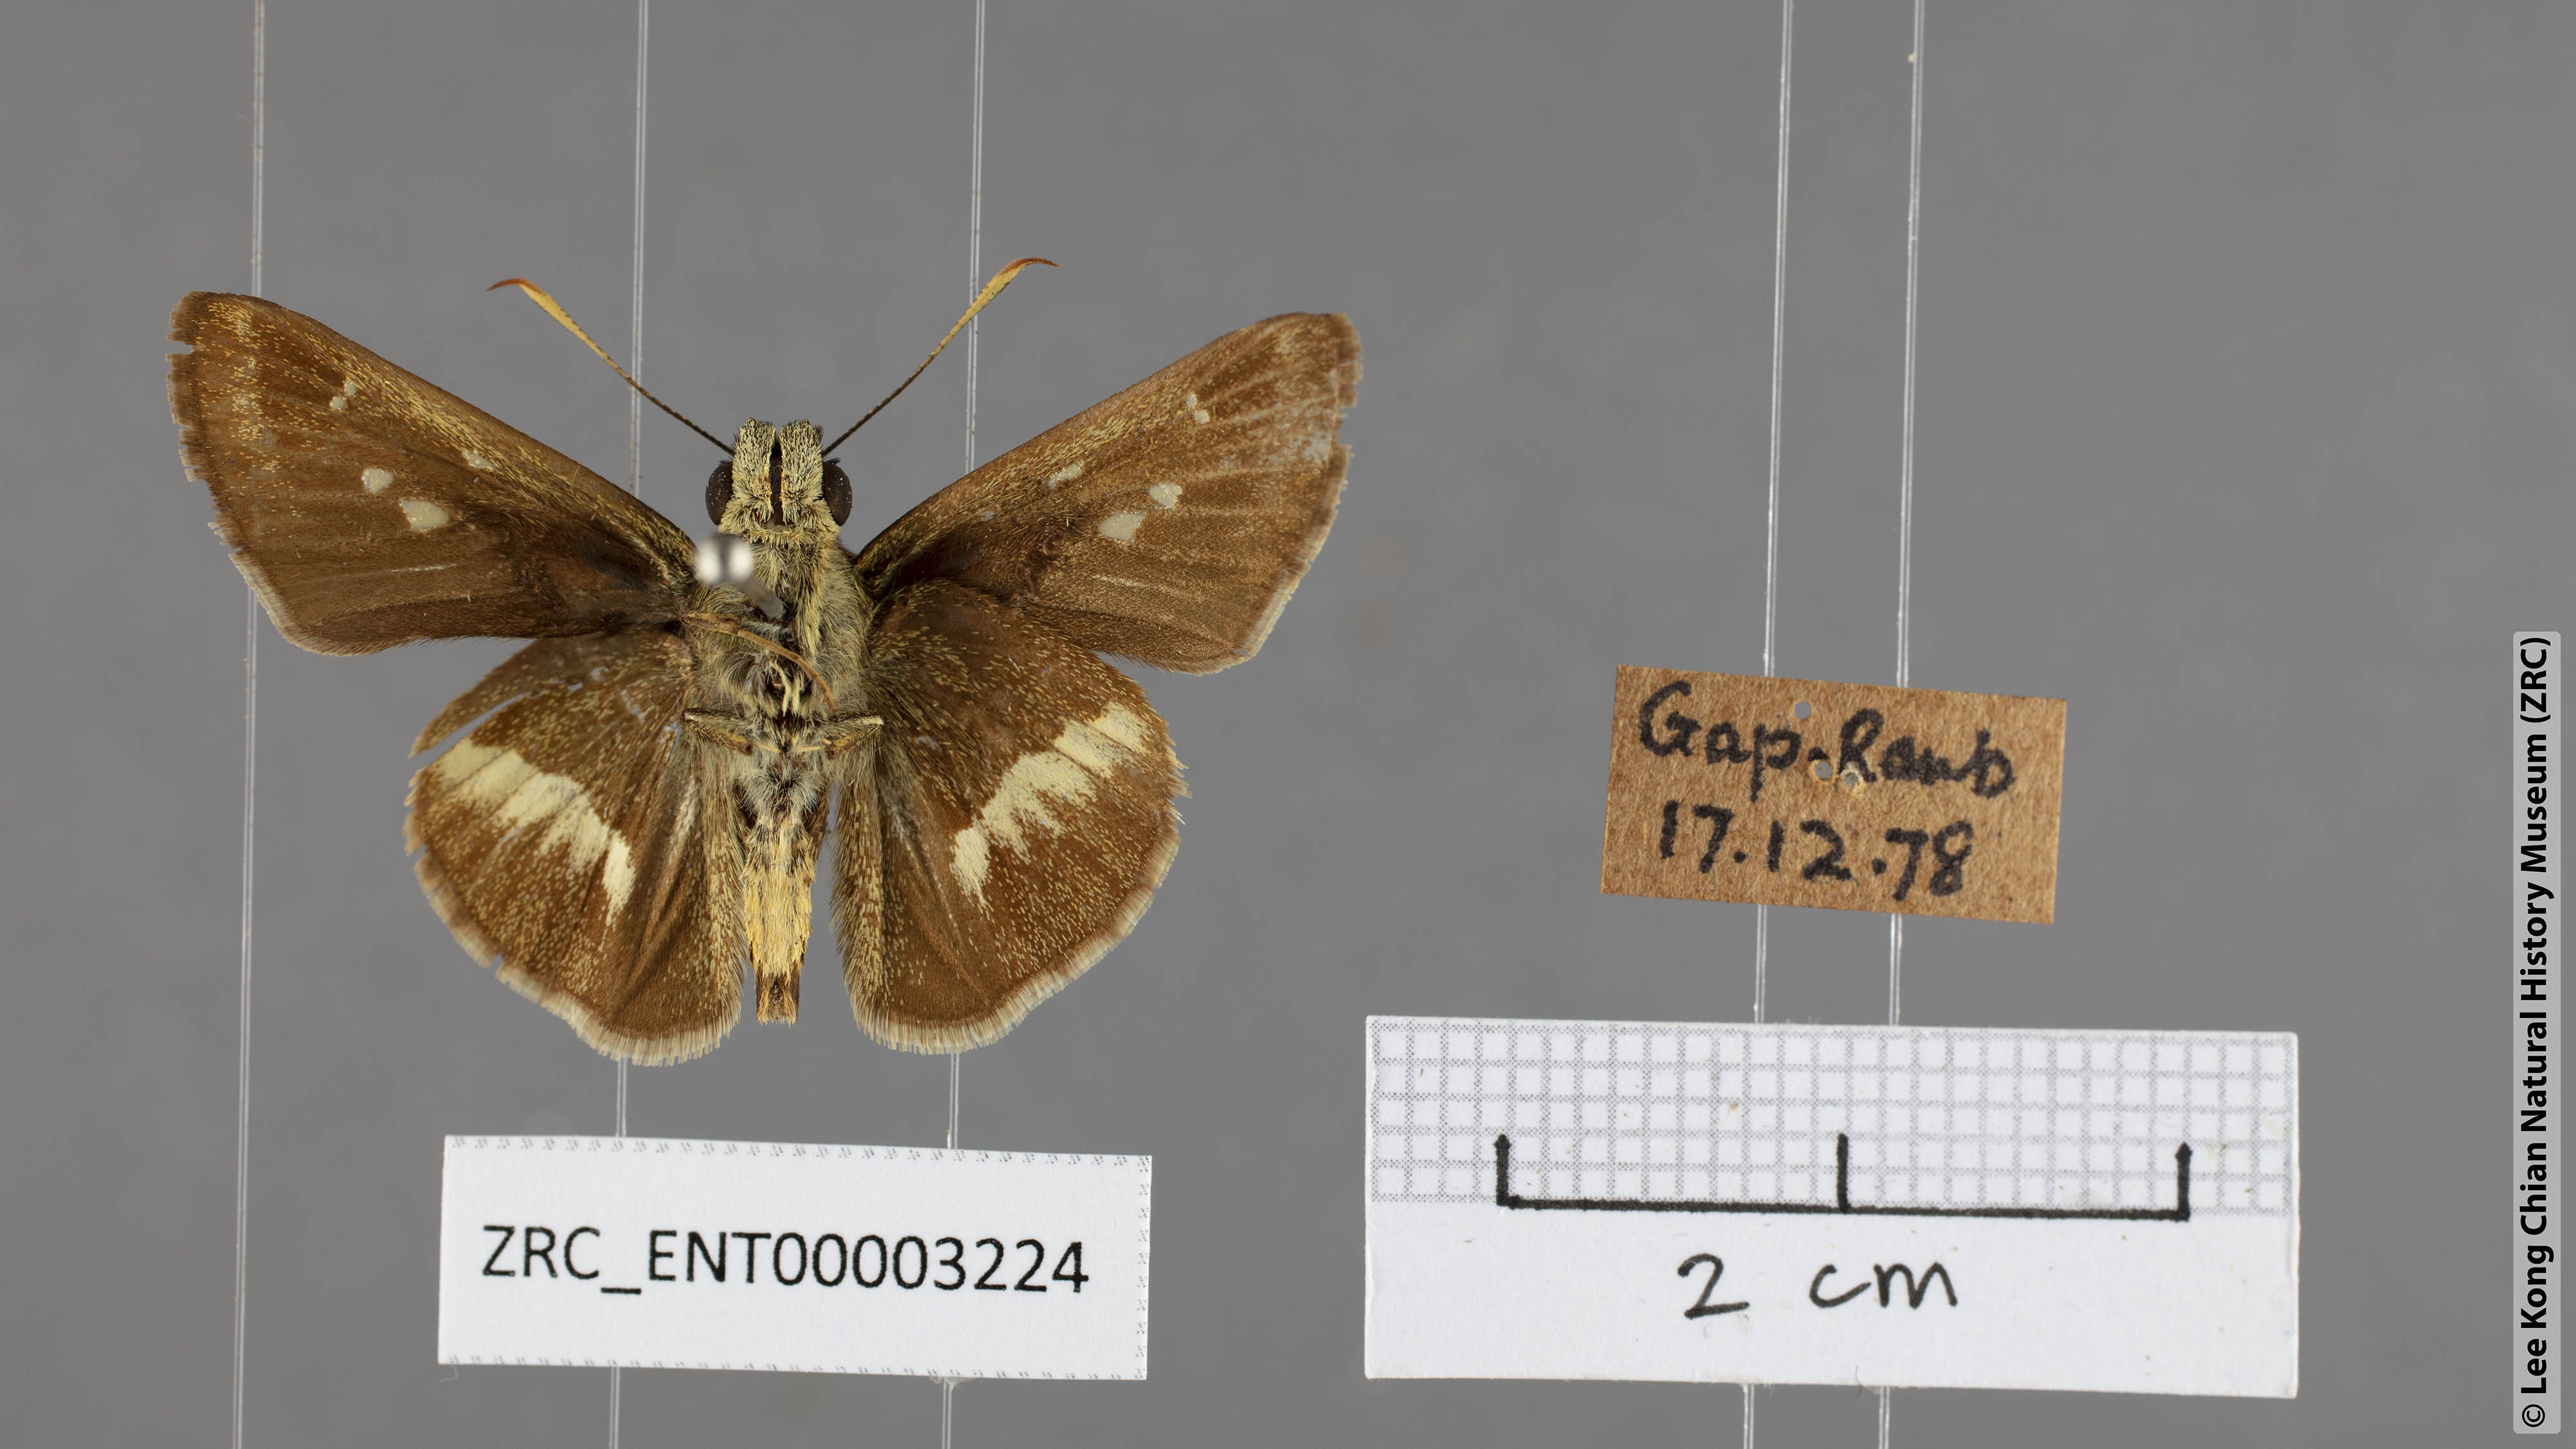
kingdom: Animalia
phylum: Arthropoda
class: Insecta
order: Lepidoptera
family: Hesperiidae
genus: Halpe
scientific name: Halpe elana
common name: Narrow-banded ace
